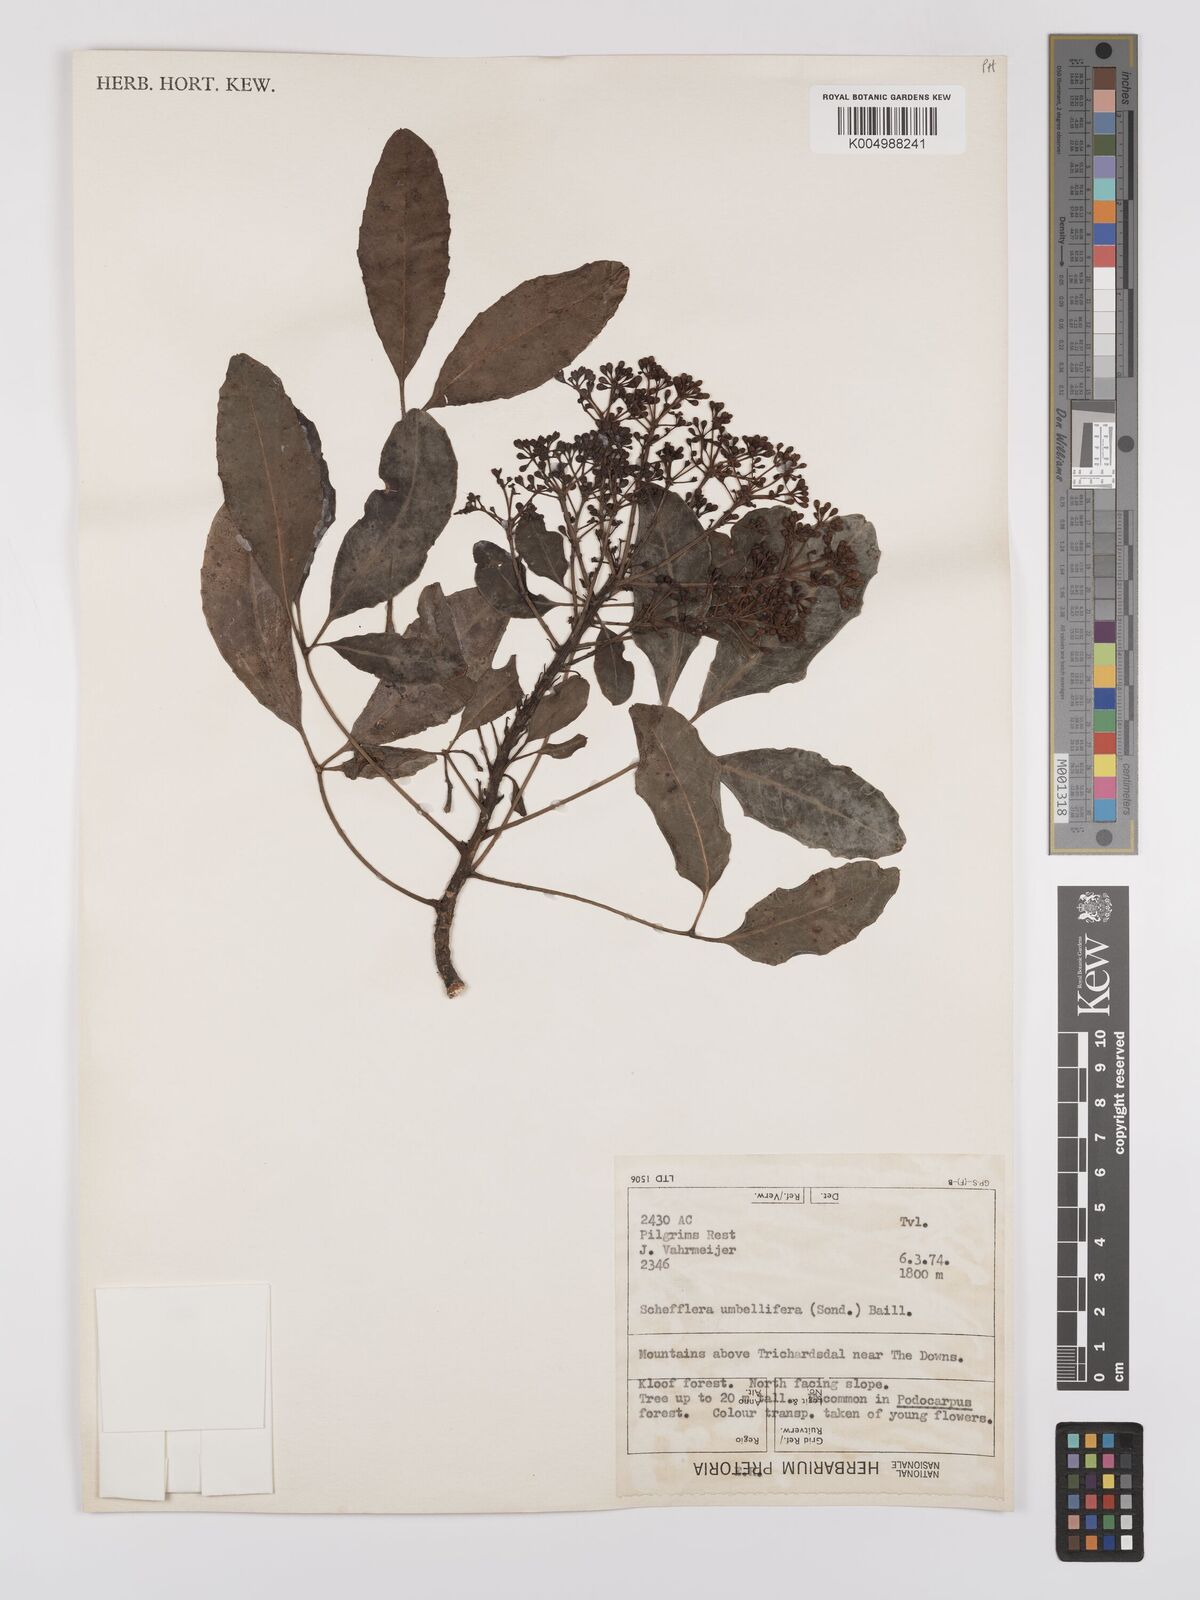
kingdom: Plantae
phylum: Tracheophyta
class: Magnoliopsida
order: Apiales
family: Araliaceae
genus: Neocussonia
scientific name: Neocussonia umbellifera
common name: False cabbage tree
